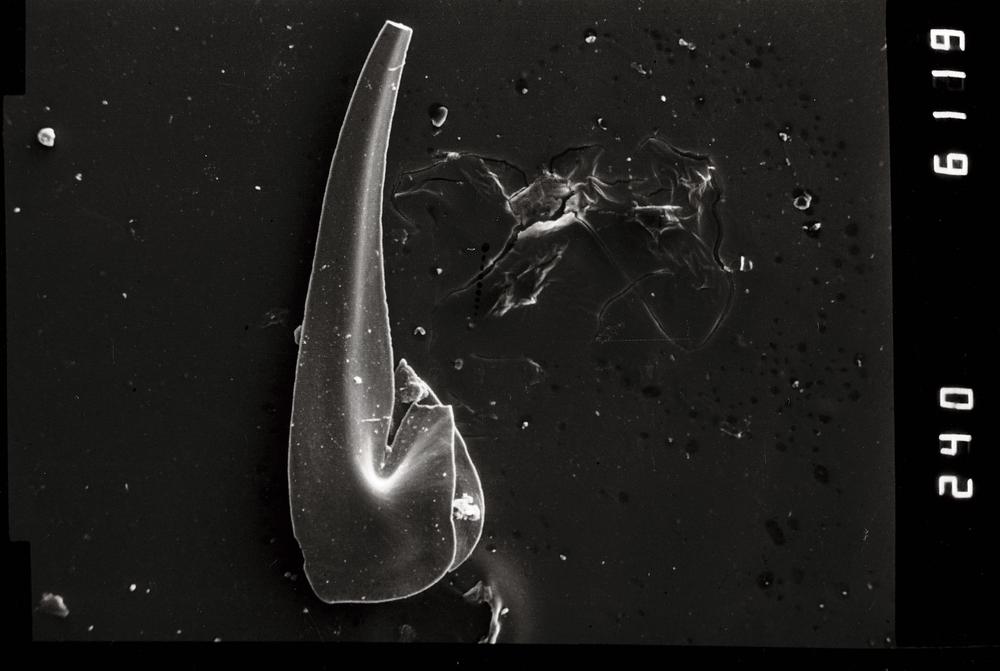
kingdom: Animalia
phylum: Chordata
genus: Paroistodus
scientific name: Paroistodus Drepanodus proteus
